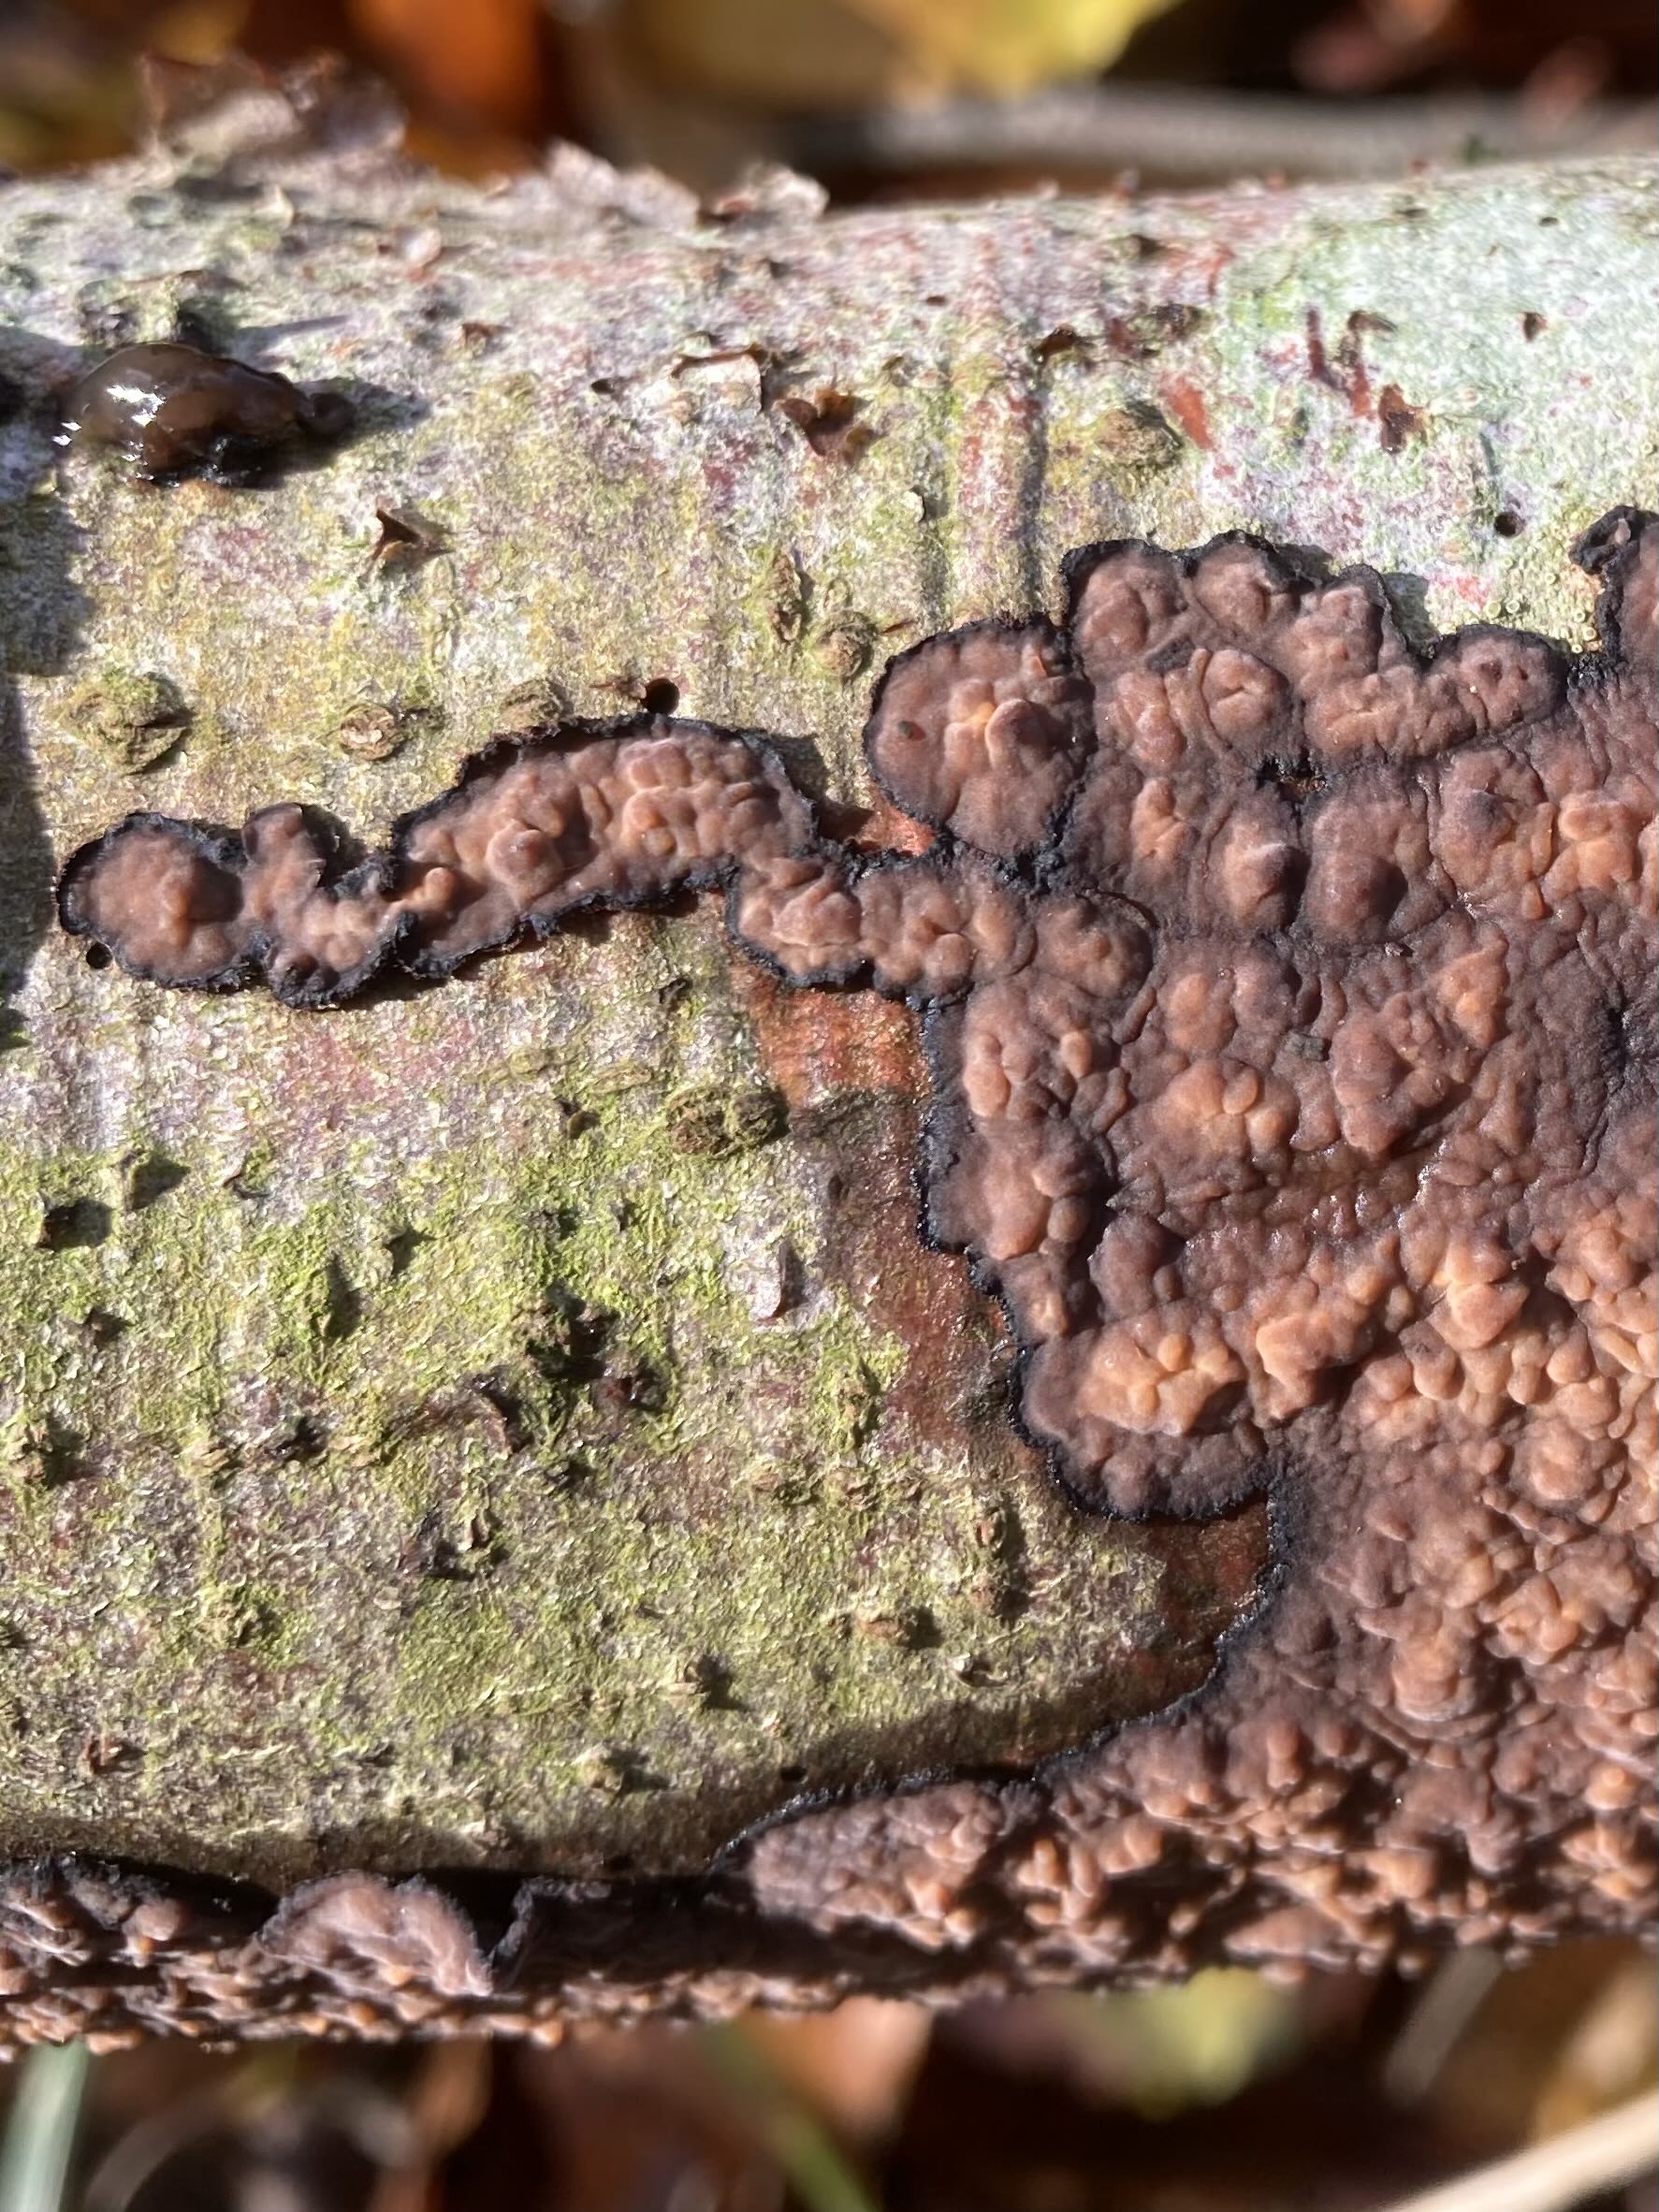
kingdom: Fungi
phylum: Basidiomycota
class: Agaricomycetes
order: Russulales
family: Peniophoraceae
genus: Peniophora
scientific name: Peniophora quercina
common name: ege-voksskind
